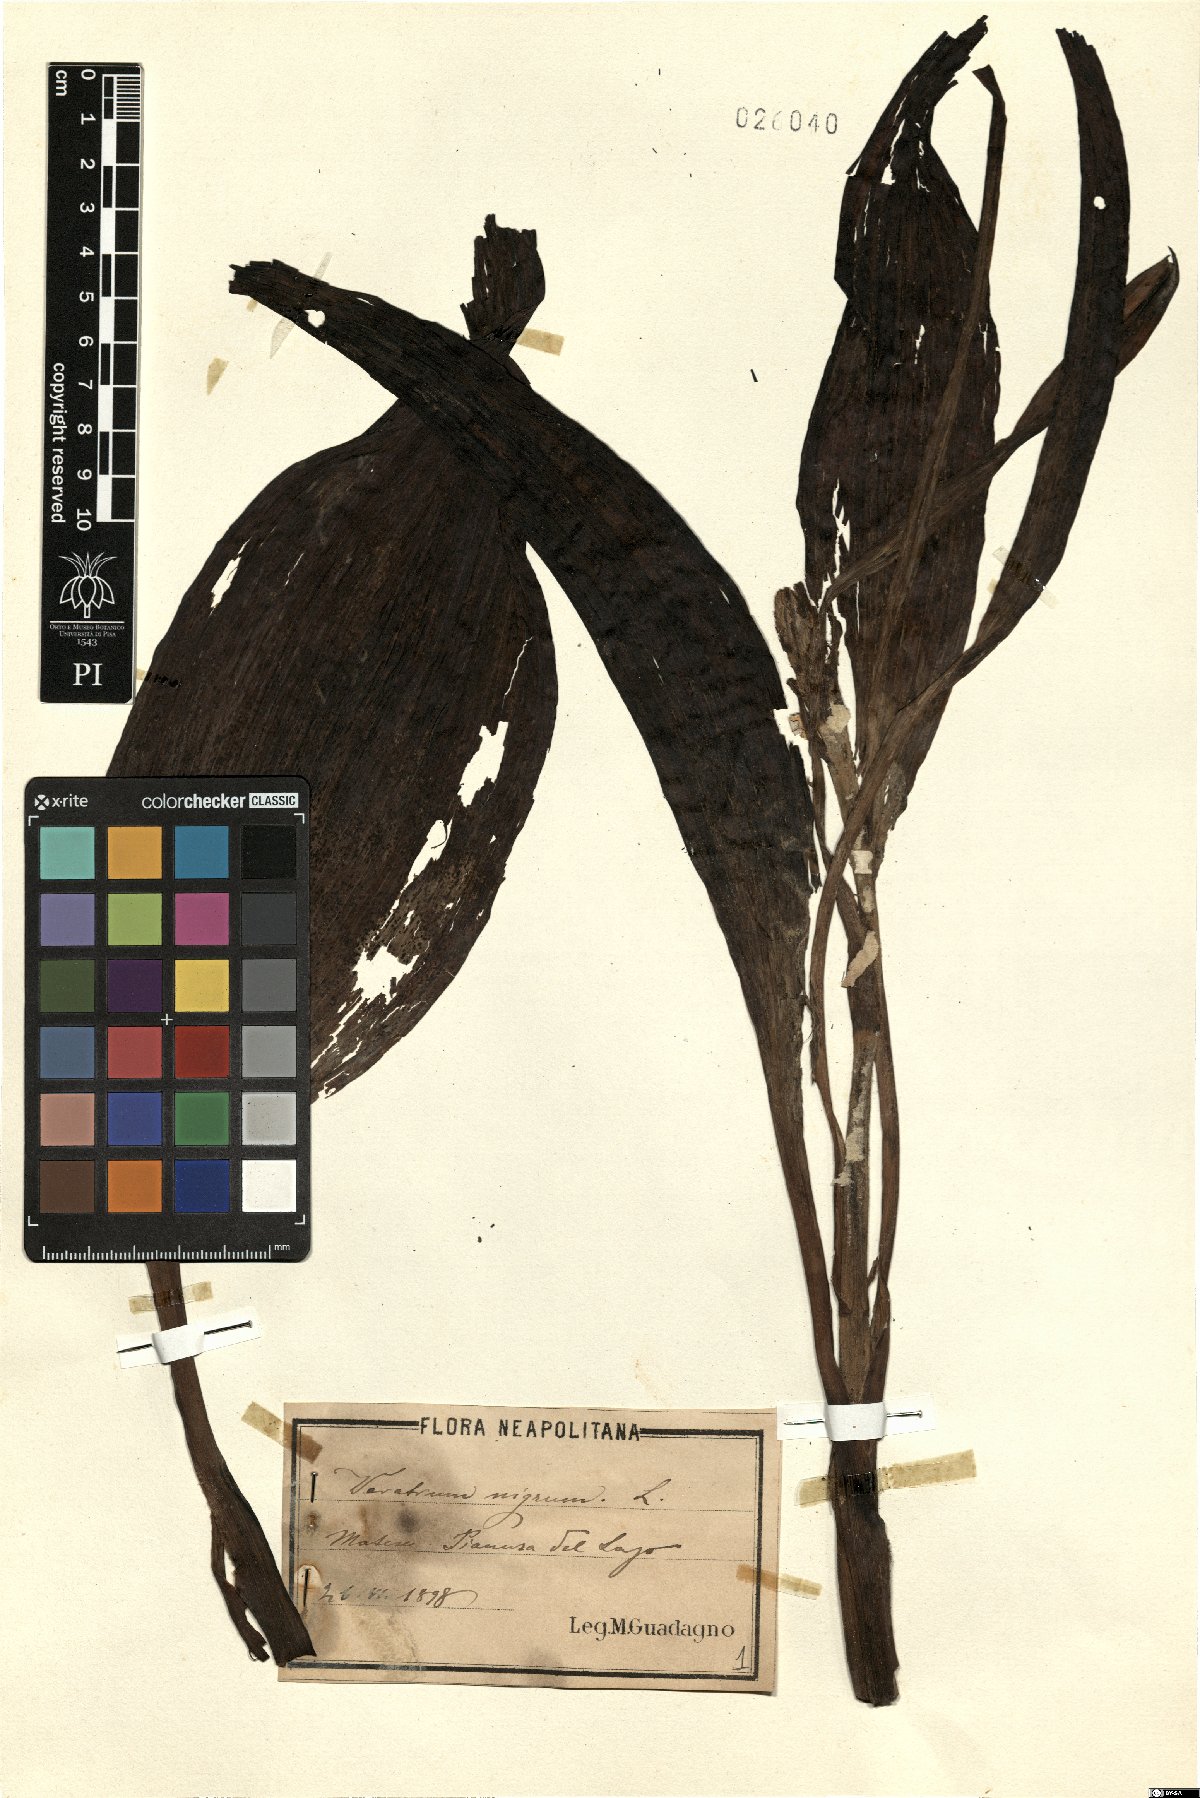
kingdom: Plantae
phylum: Tracheophyta
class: Liliopsida
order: Liliales
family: Melanthiaceae
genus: Veratrum
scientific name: Veratrum nigrum
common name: Black veratrum
